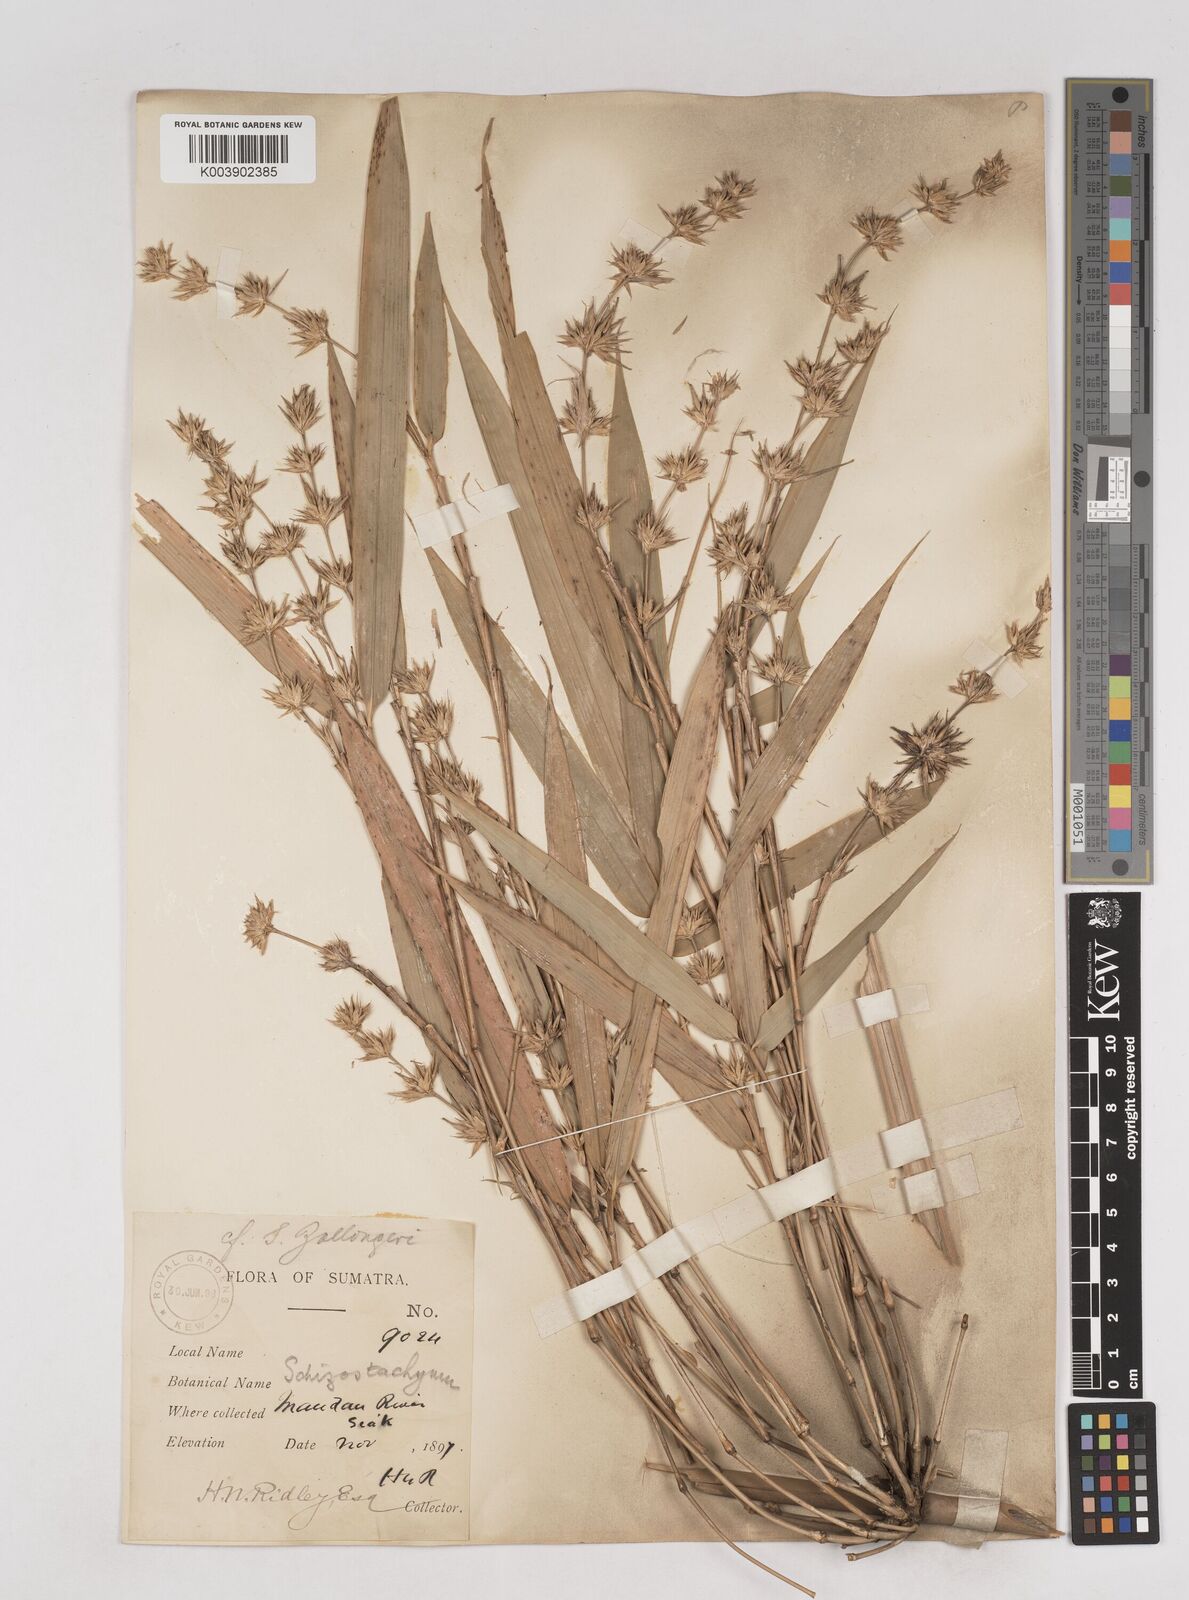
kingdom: Plantae
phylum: Tracheophyta
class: Liliopsida
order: Poales
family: Poaceae
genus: Schizostachyum
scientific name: Schizostachyum zollingeri
